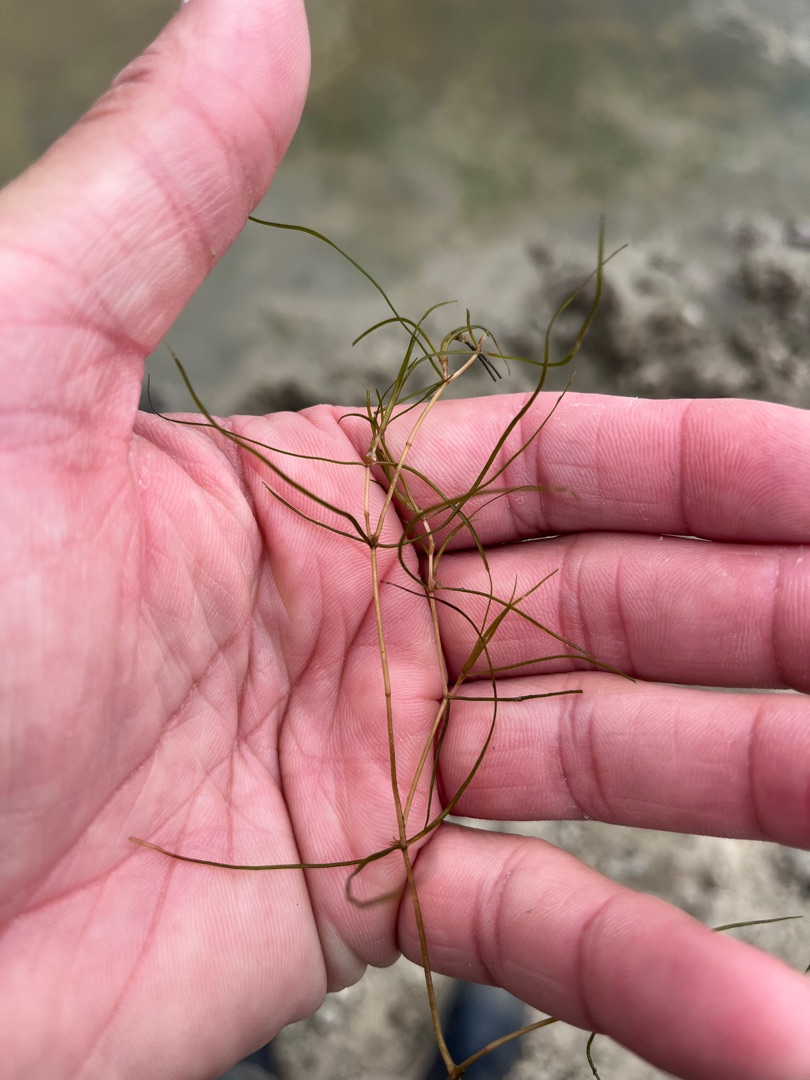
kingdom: Plantae
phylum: Tracheophyta
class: Liliopsida
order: Alismatales
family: Potamogetonaceae
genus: Zannichellia
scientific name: Zannichellia palustris
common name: Vandkrans
